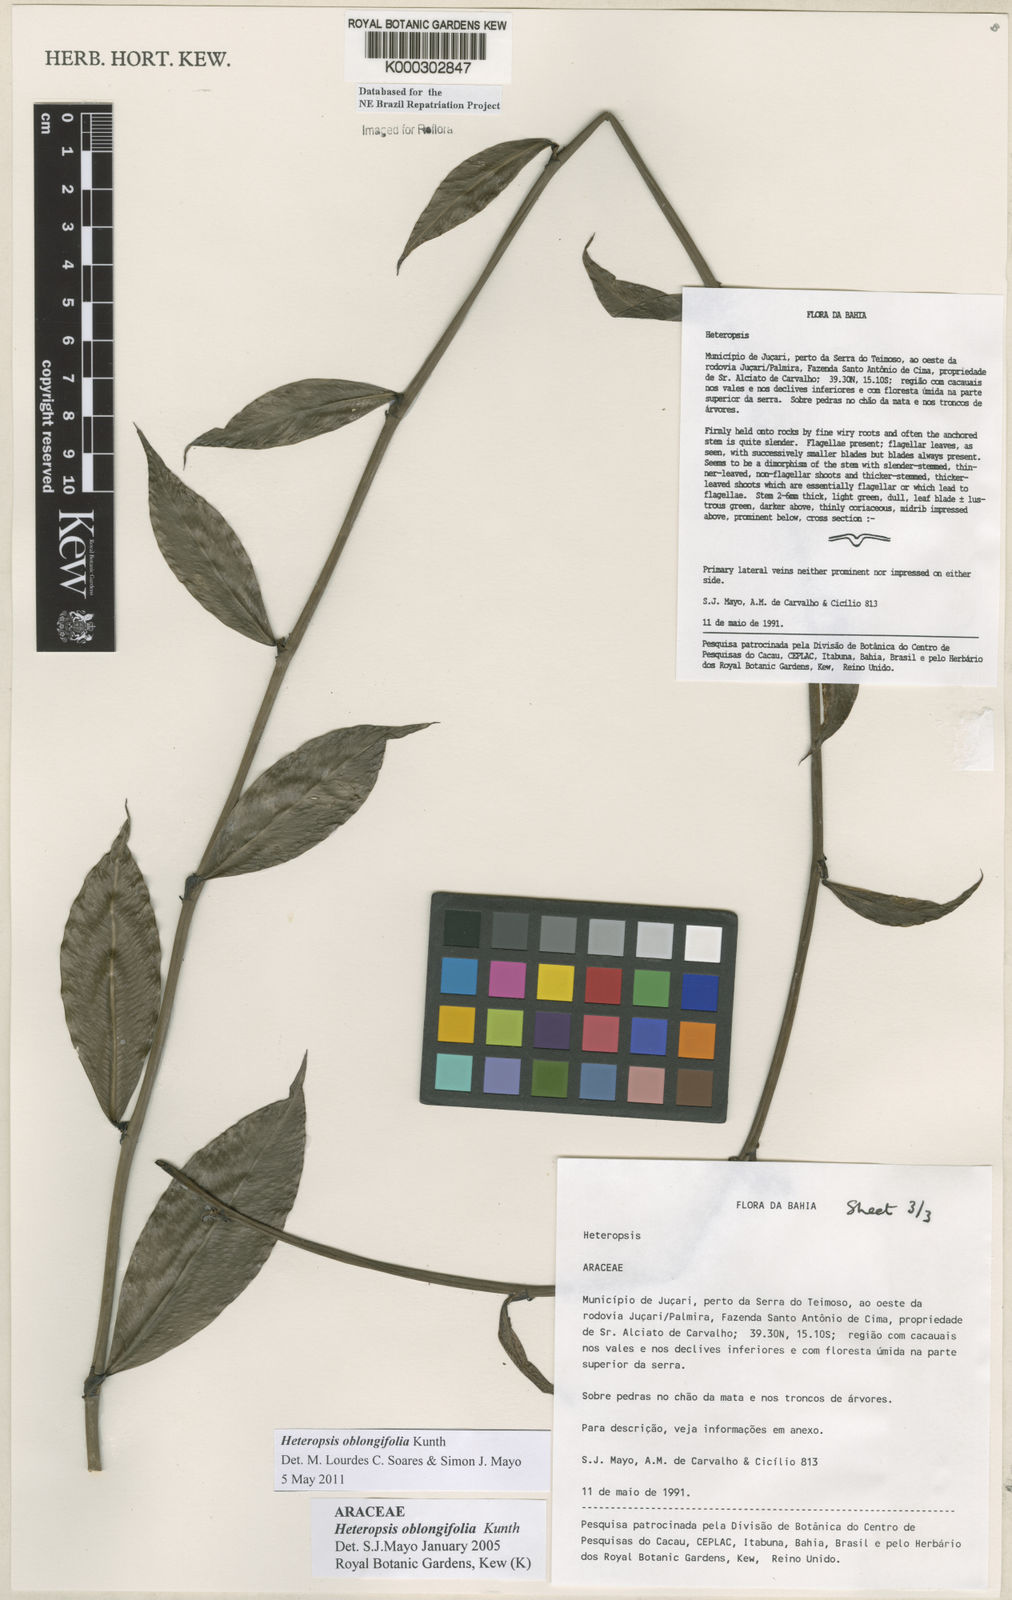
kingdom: Plantae
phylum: Tracheophyta
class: Liliopsida
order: Alismatales
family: Araceae
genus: Heteropsis
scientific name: Heteropsis oblongifolia
